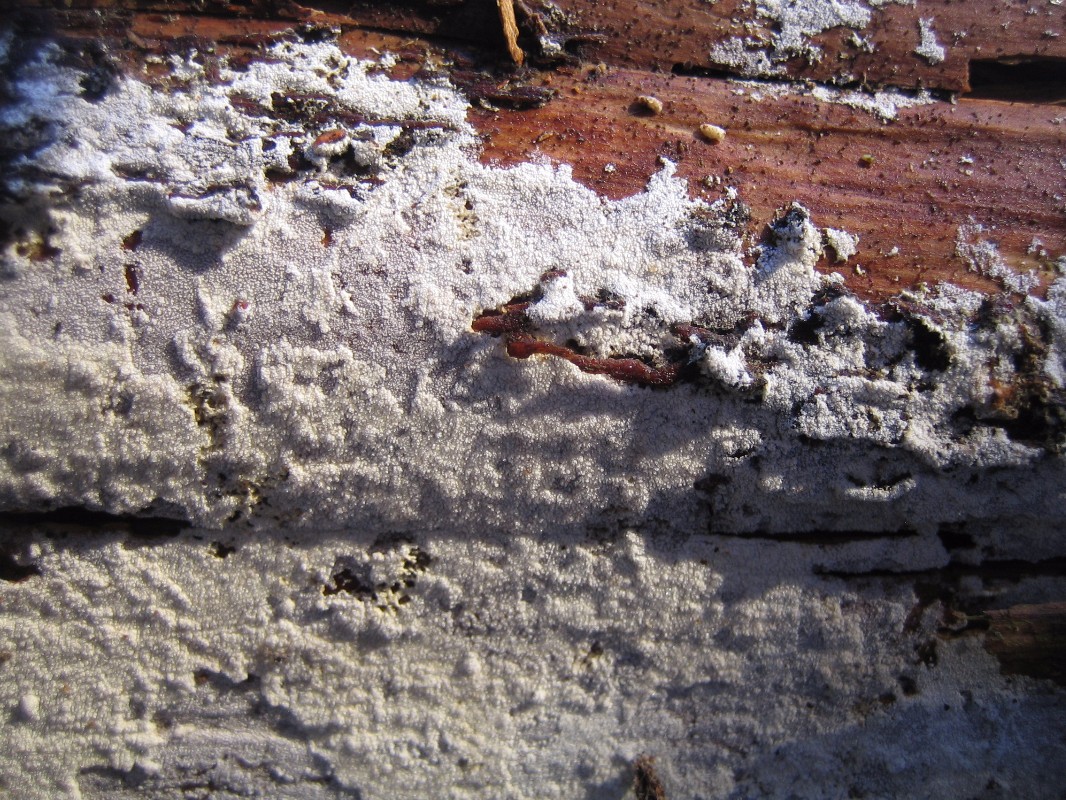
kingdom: Fungi
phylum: Basidiomycota
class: Agaricomycetes
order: Corticiales
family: Corticiaceae
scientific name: Corticiaceae
